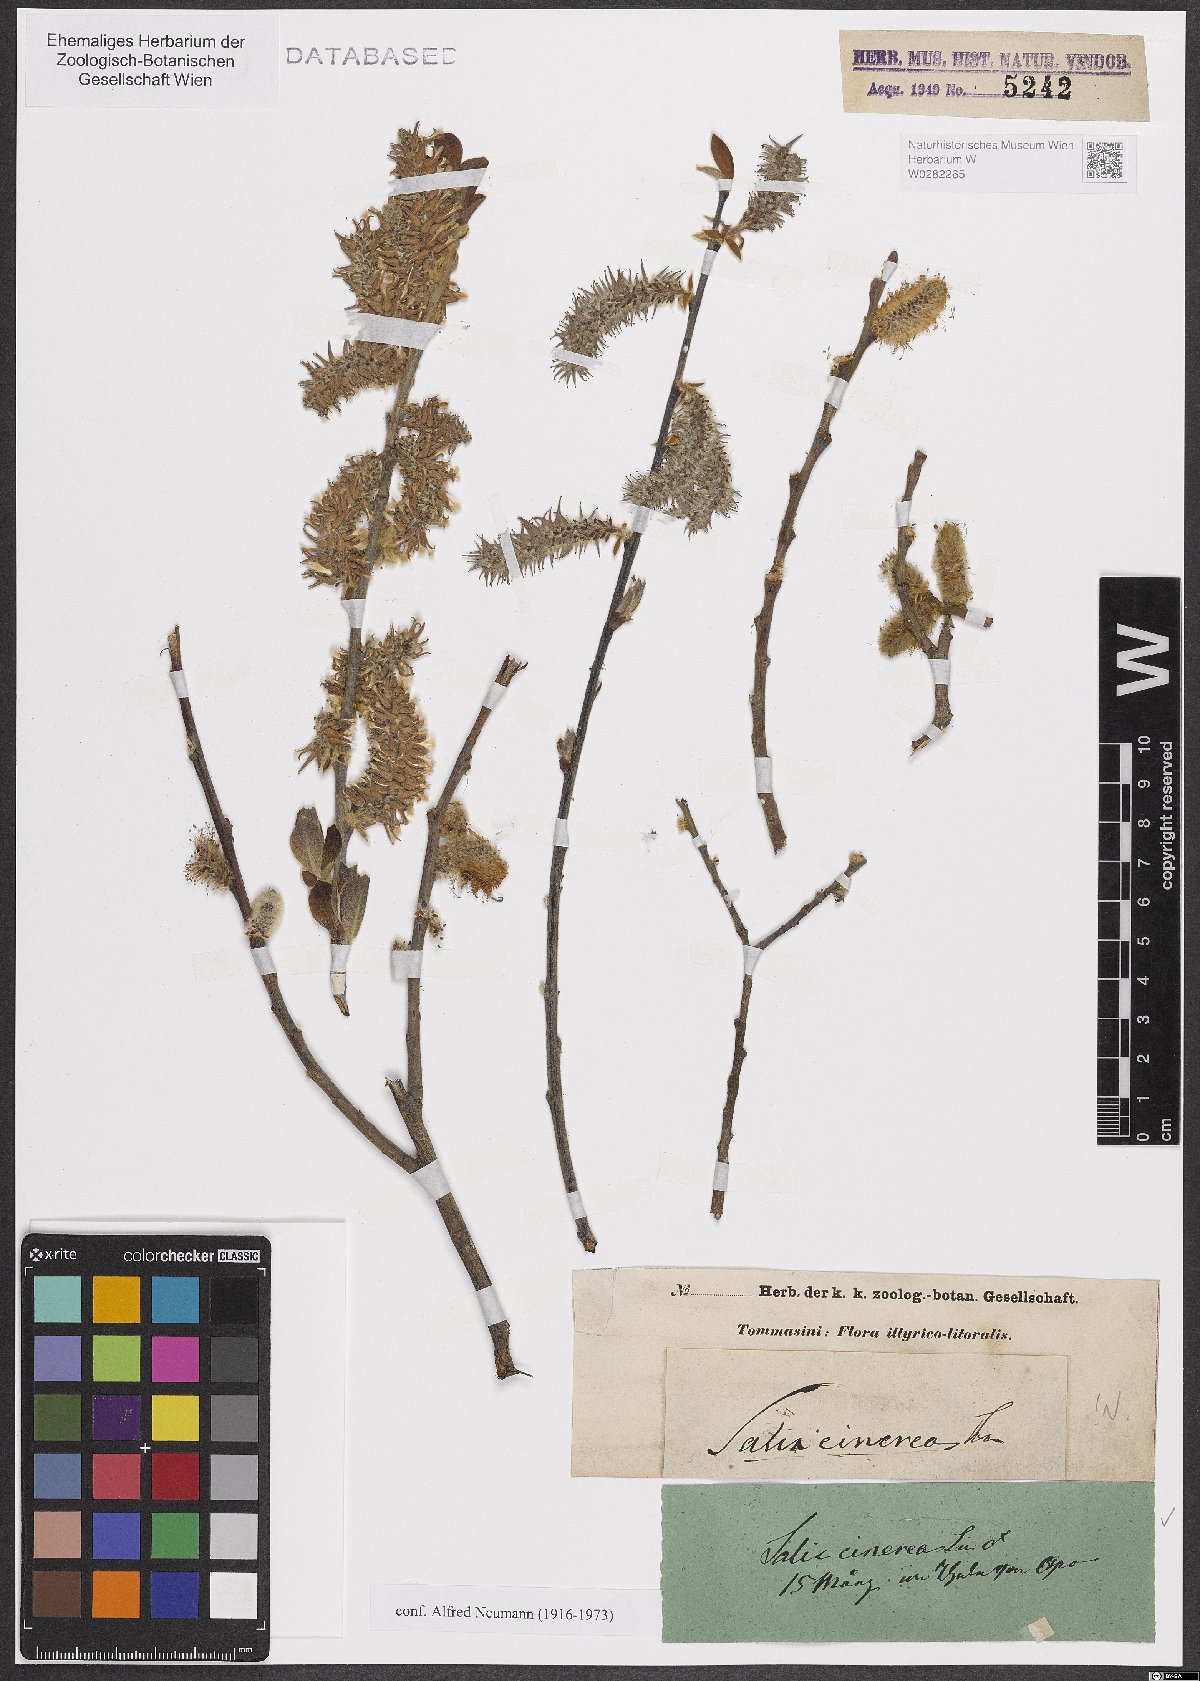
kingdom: Plantae
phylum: Tracheophyta
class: Magnoliopsida
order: Malpighiales
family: Salicaceae
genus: Salix
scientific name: Salix cinerea
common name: Common sallow
